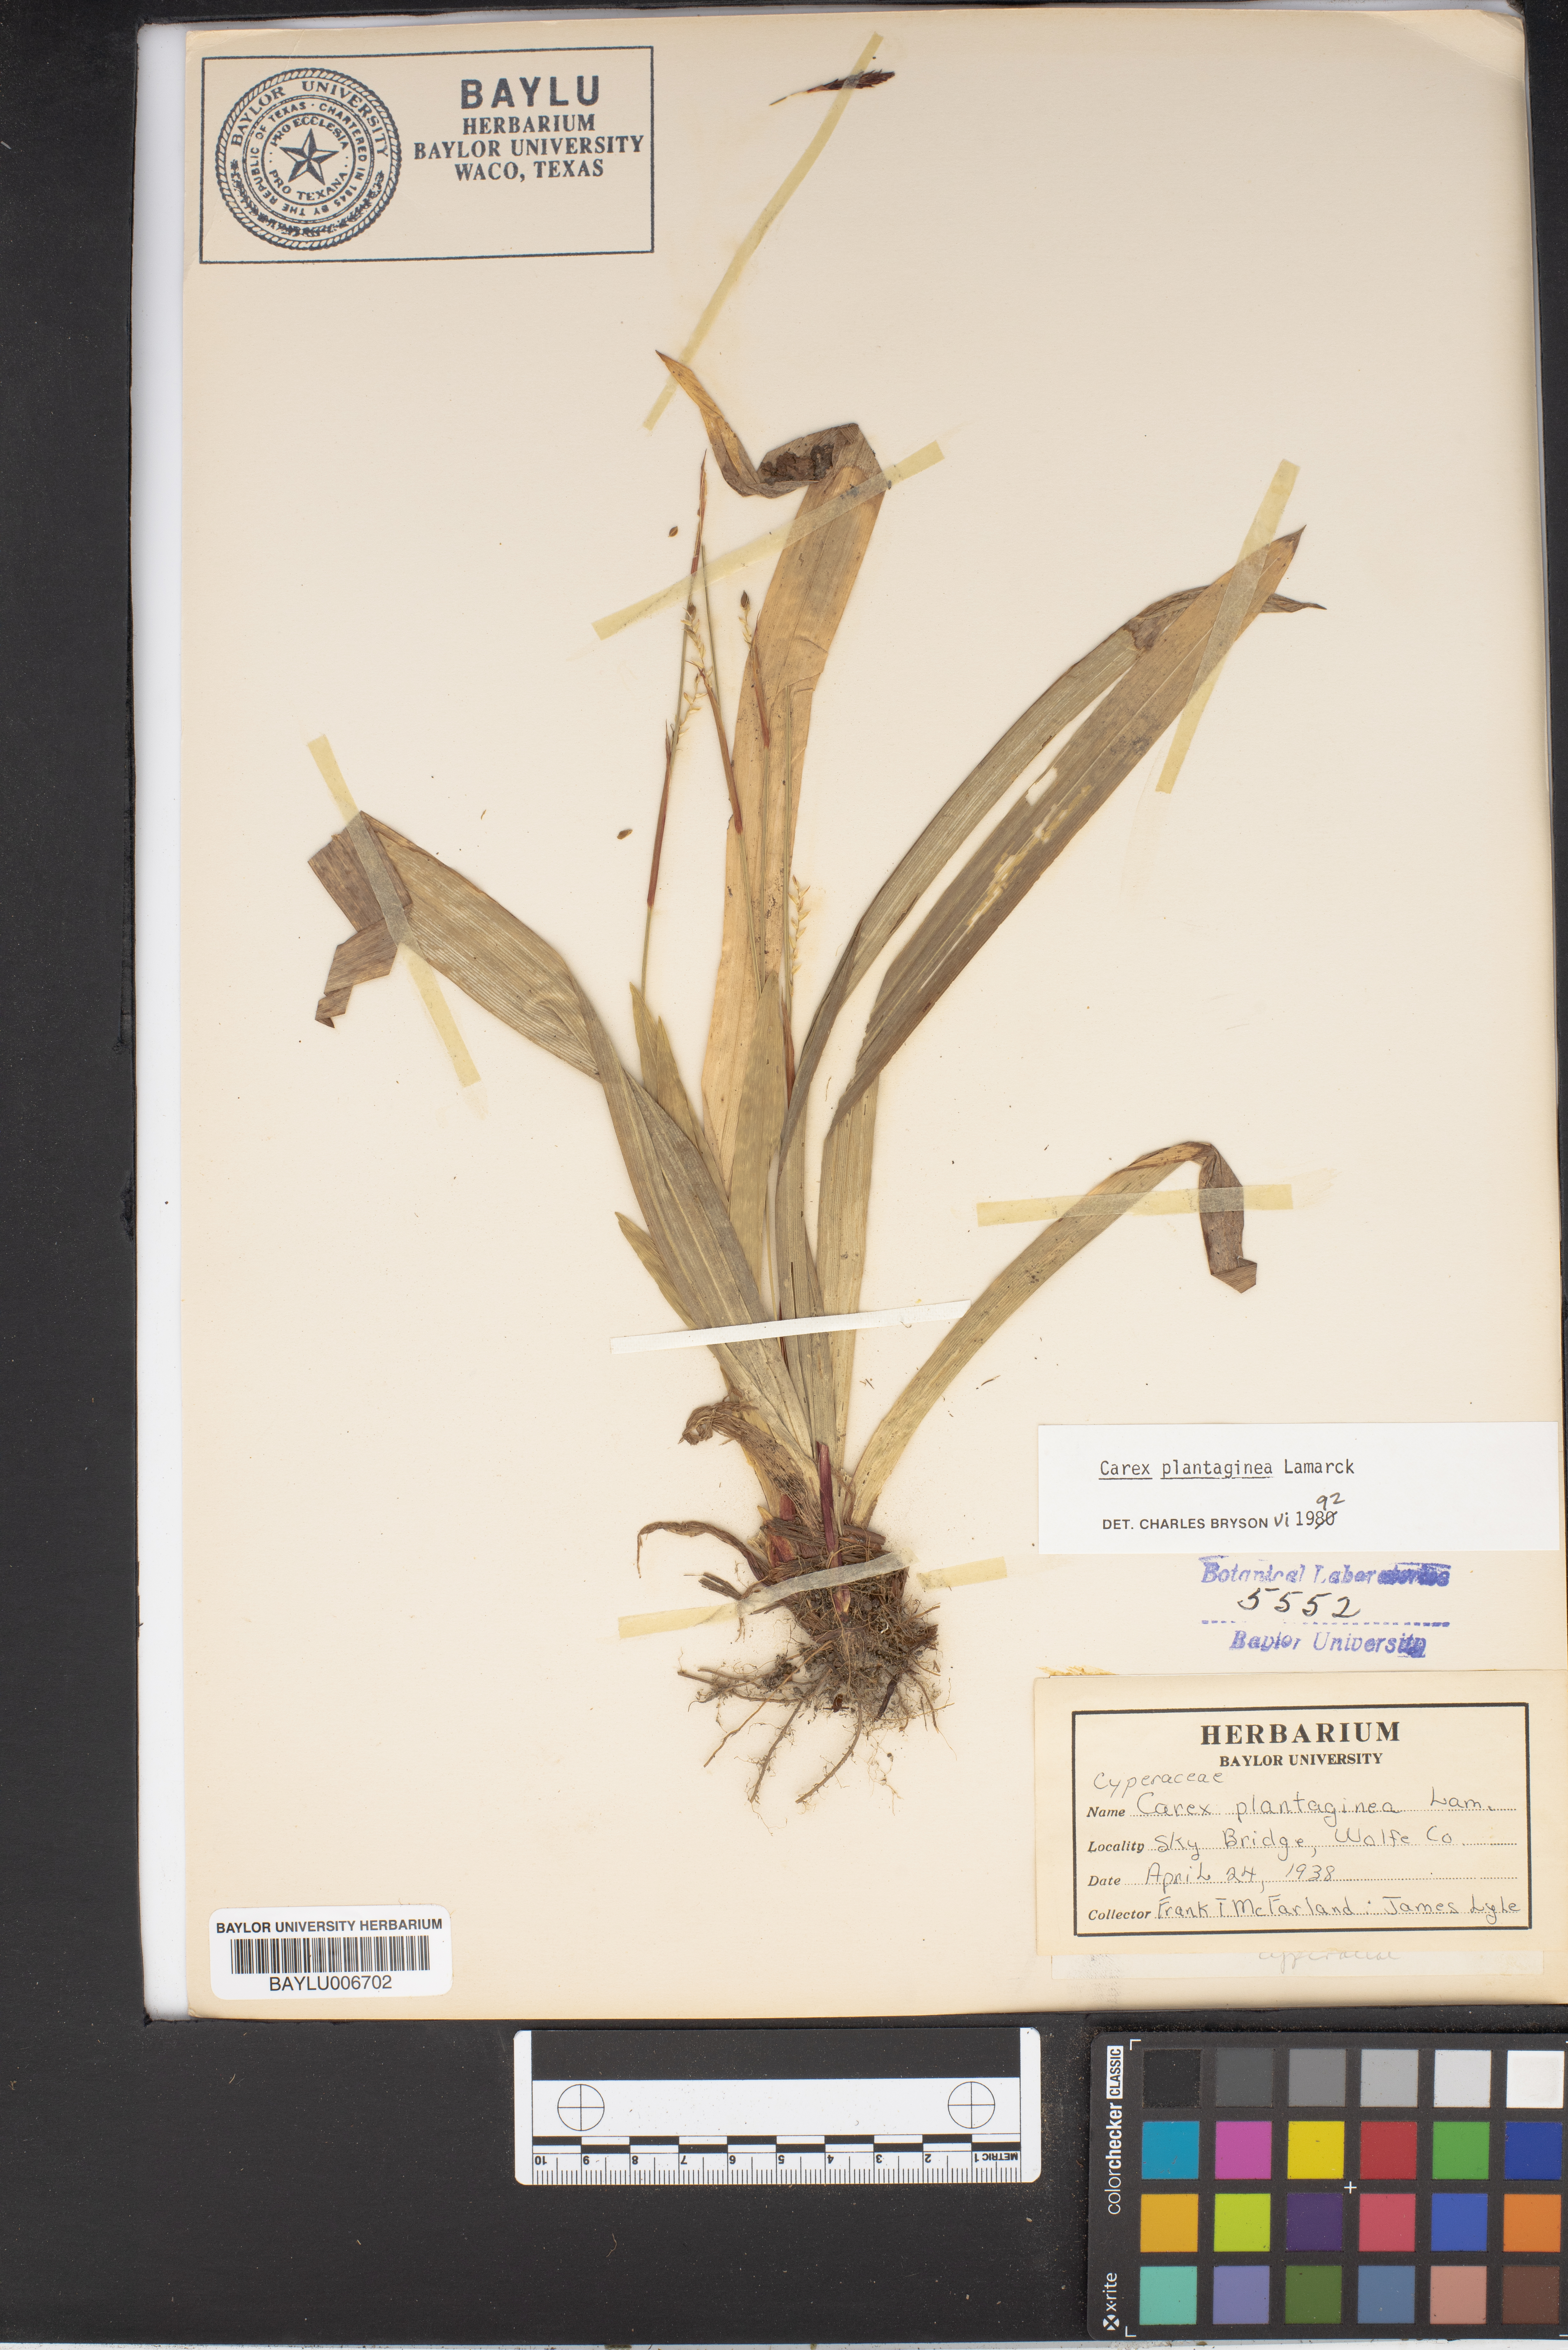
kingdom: Plantae
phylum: Tracheophyta
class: Liliopsida
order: Poales
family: Cyperaceae
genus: Carex
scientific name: Carex plantaginea
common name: Plantain-leaved sedge
